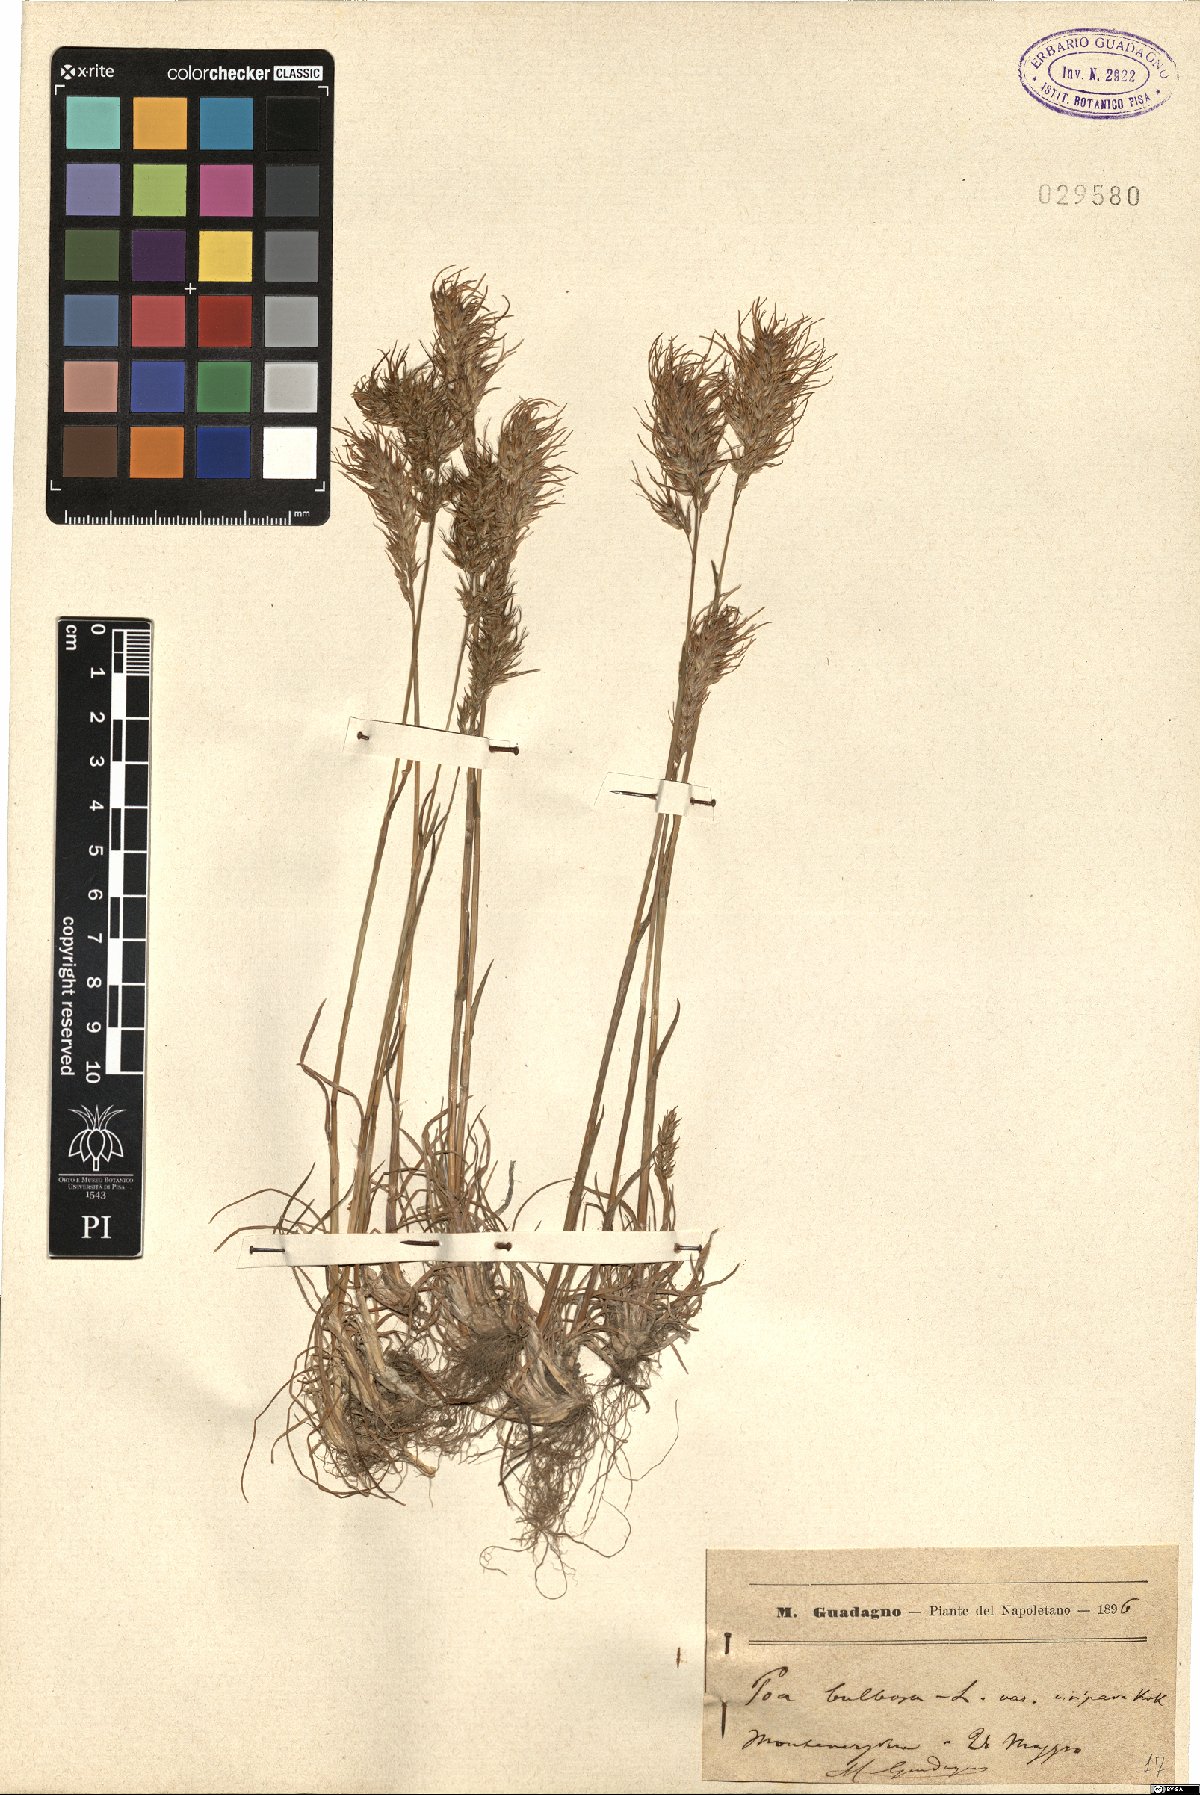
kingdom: Plantae
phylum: Tracheophyta
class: Liliopsida
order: Poales
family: Poaceae
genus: Poa
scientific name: Poa bulbosa
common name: Bulbous bluegrass
